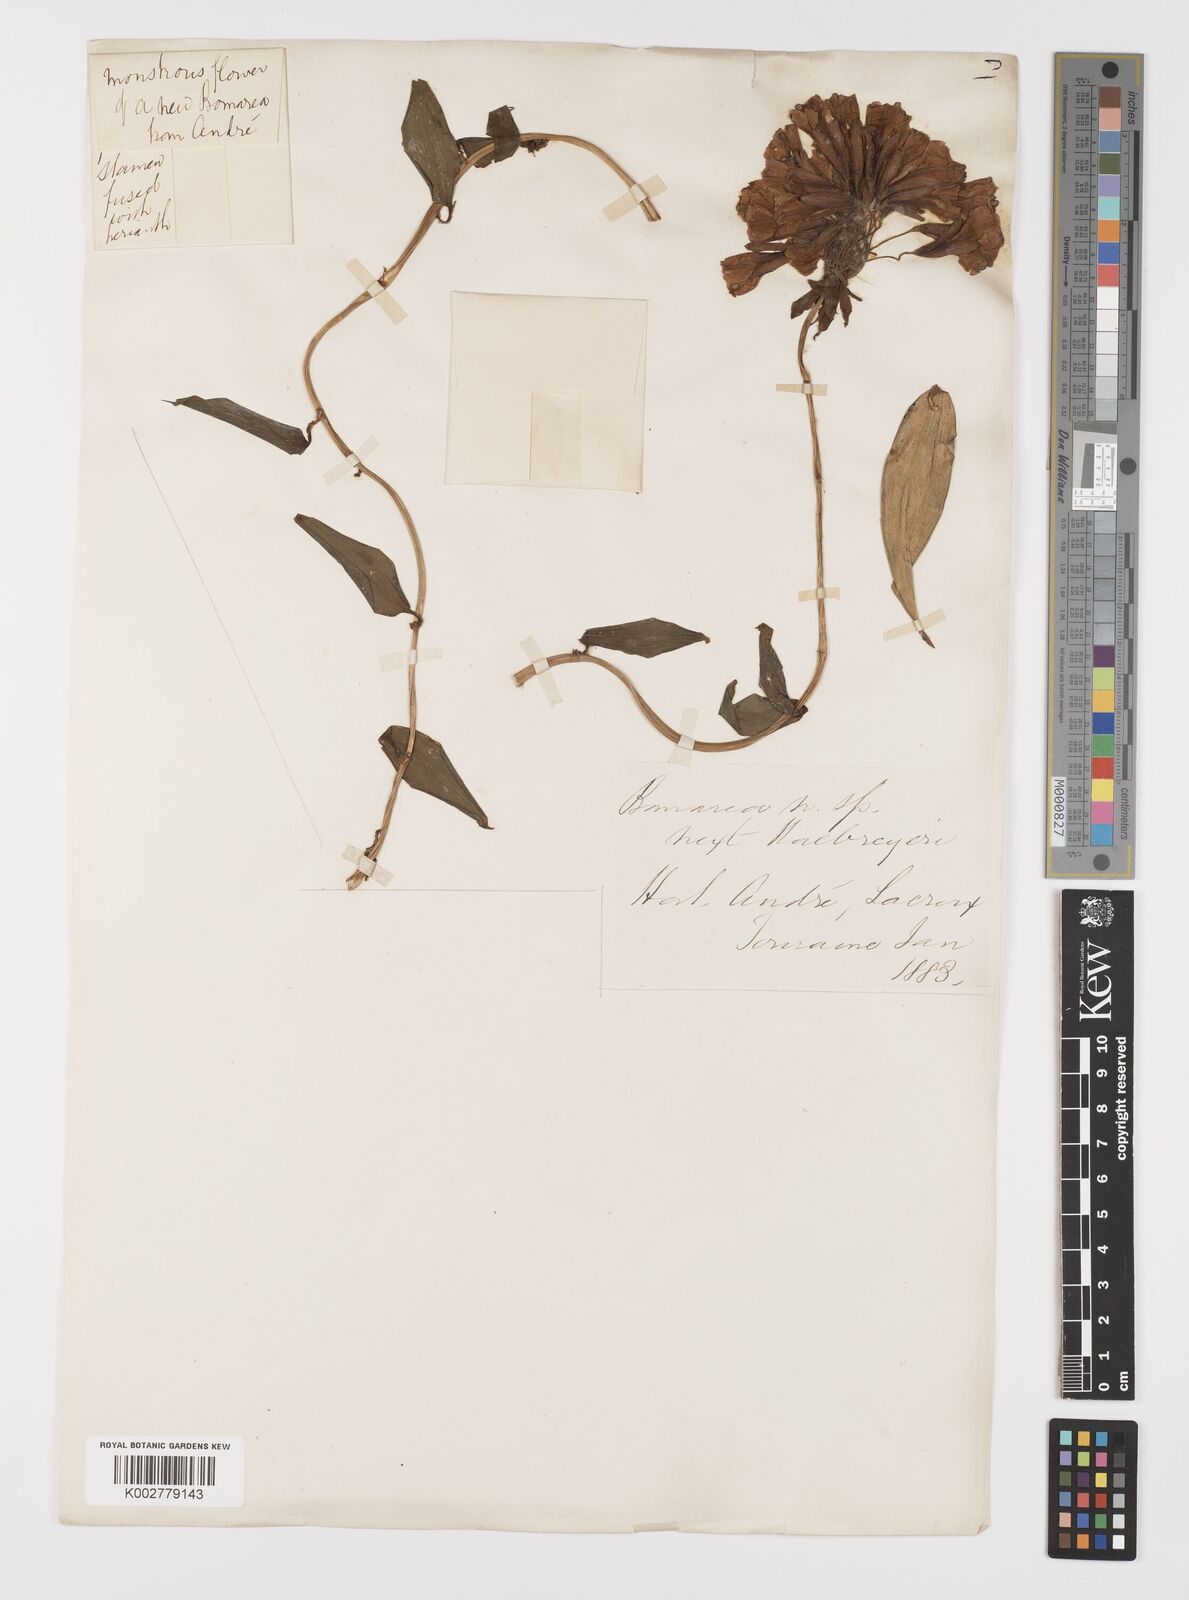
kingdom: Plantae
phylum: Tracheophyta
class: Liliopsida
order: Liliales
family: Alstroemeriaceae
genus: Bomarea
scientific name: Bomarea multiflora
